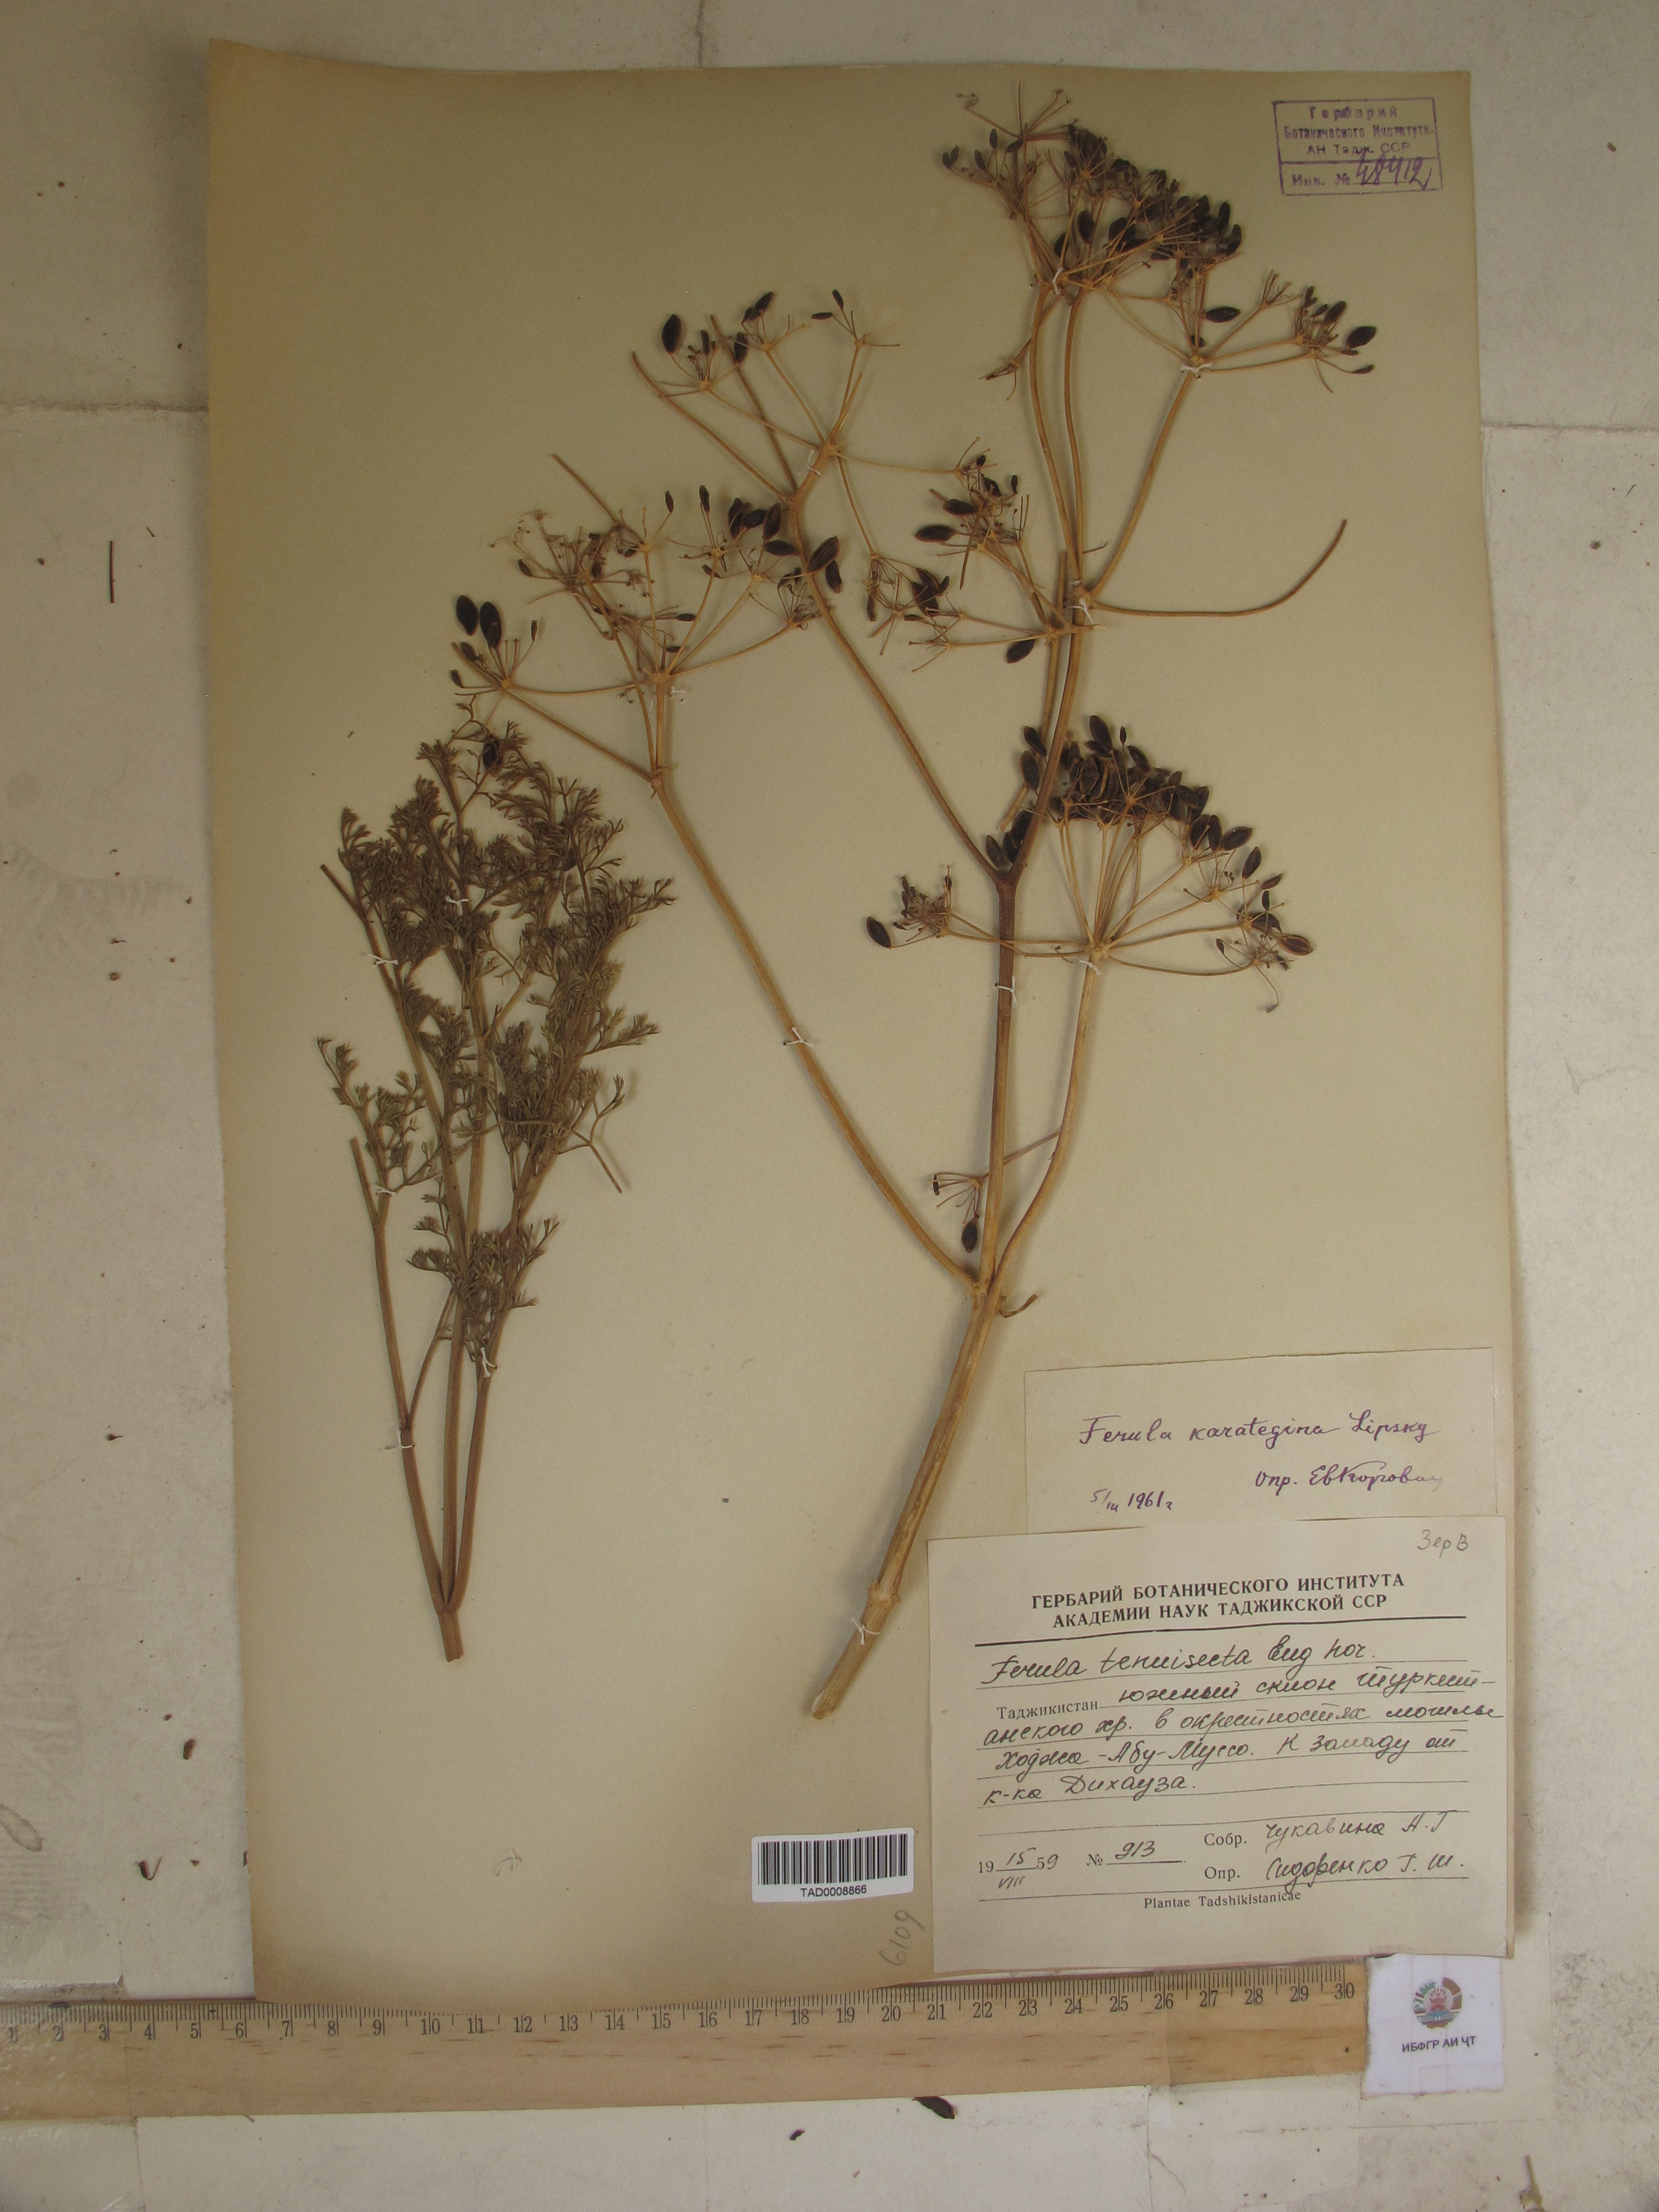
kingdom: Plantae
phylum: Tracheophyta
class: Magnoliopsida
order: Apiales
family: Apiaceae
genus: Ferula
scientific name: Ferula karategina
